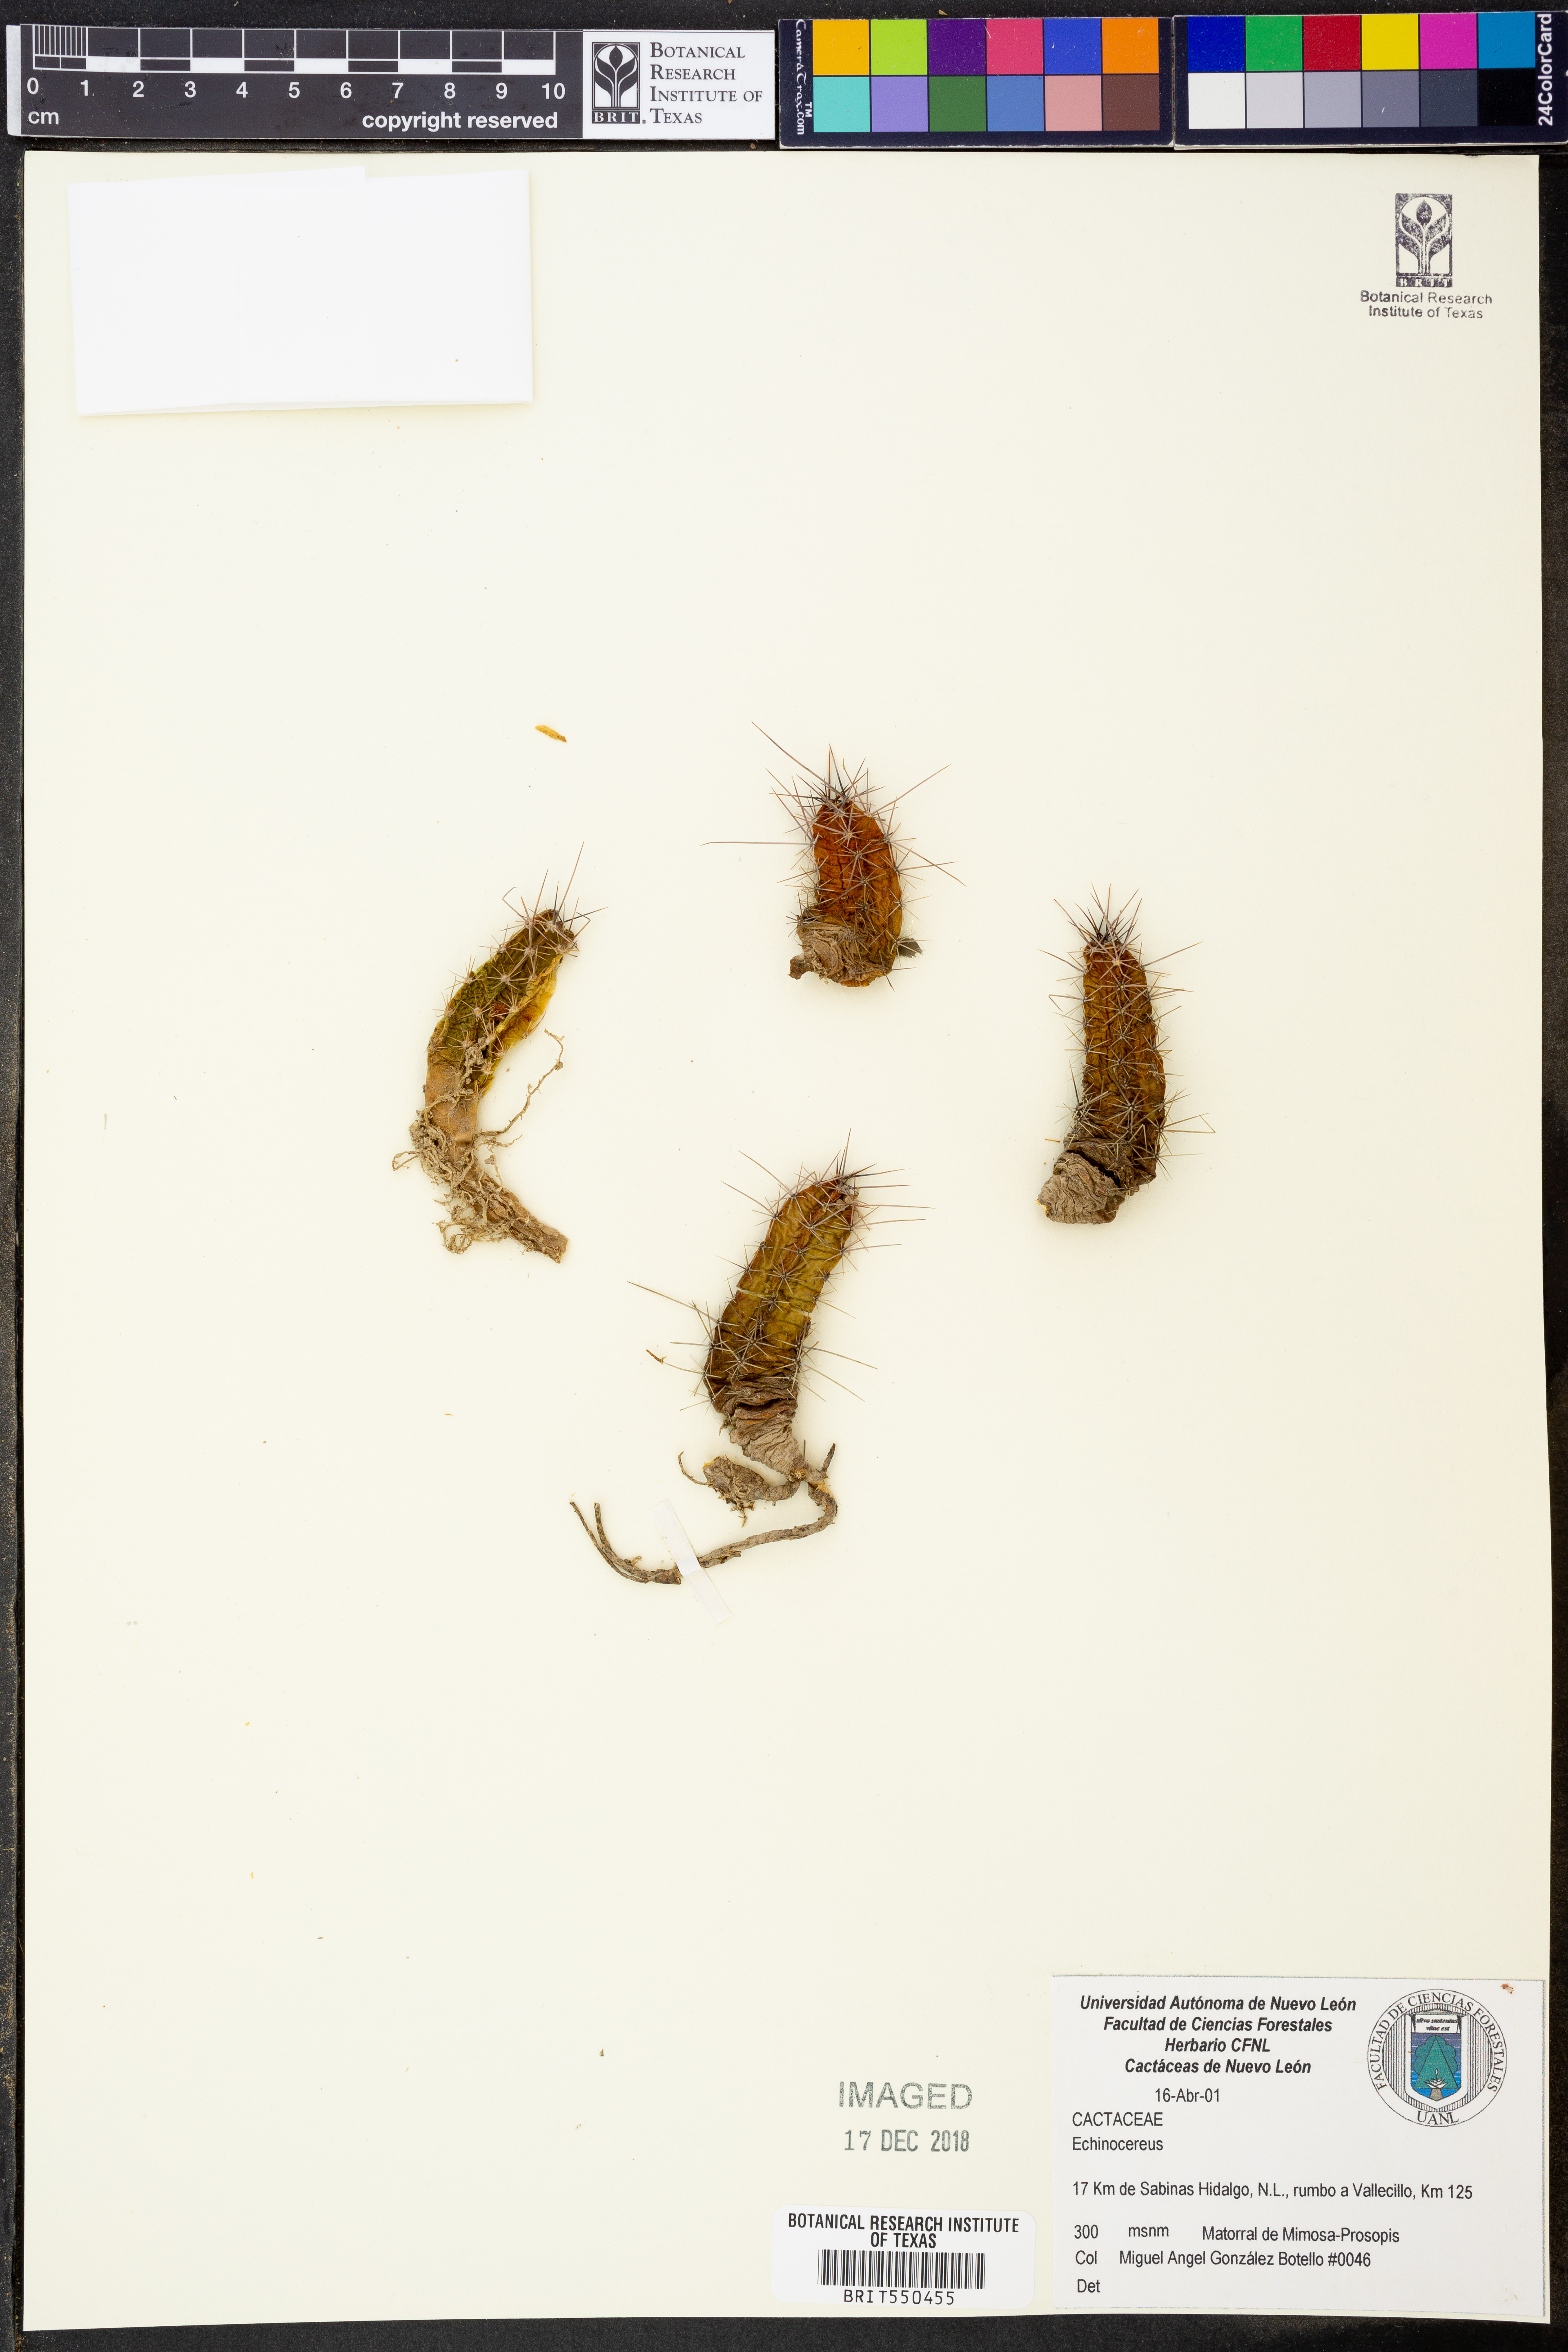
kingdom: Plantae
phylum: Tracheophyta
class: Magnoliopsida
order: Caryophyllales
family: Cactaceae
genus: Echinocereus
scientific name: Echinocereus
